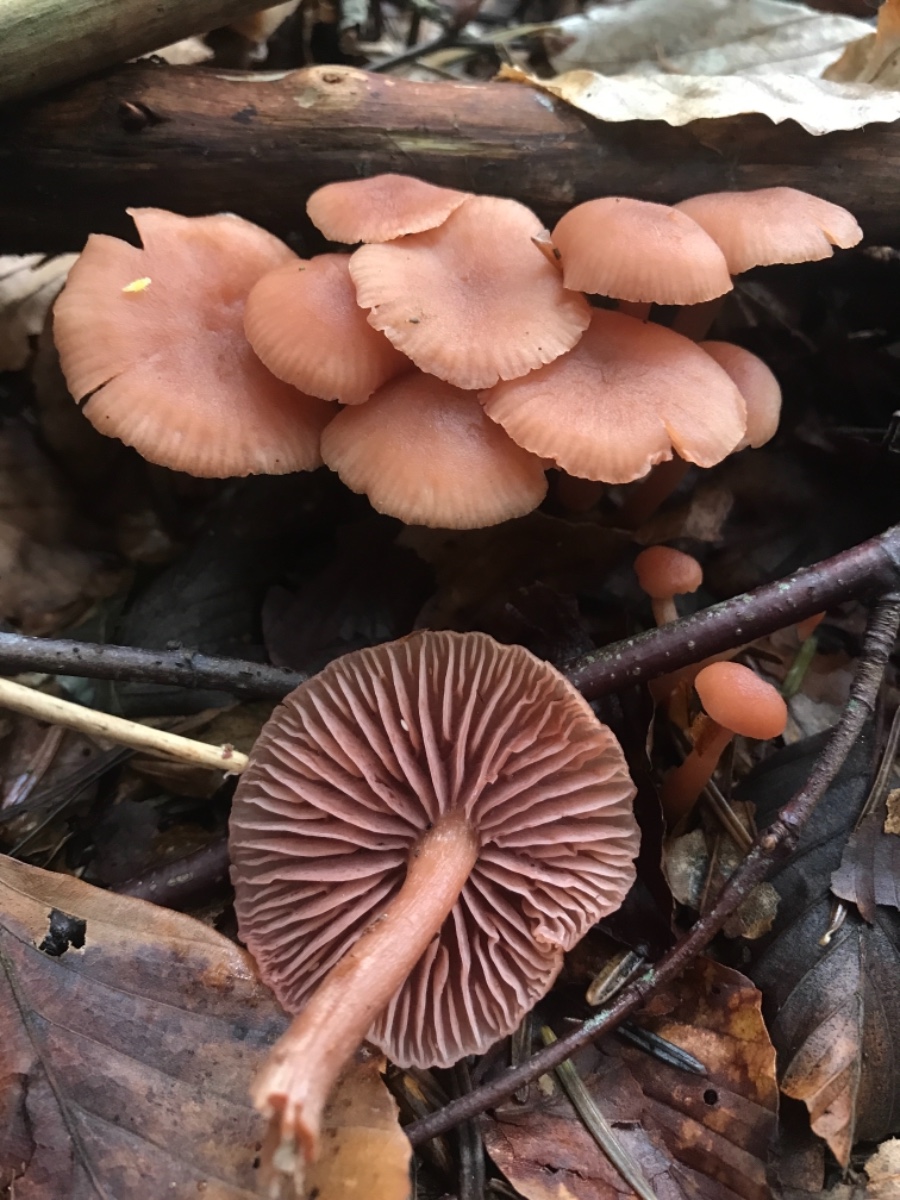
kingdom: Fungi
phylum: Basidiomycota
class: Agaricomycetes
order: Agaricales
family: Hydnangiaceae
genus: Laccaria
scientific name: Laccaria laccata
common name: rød ametysthat
